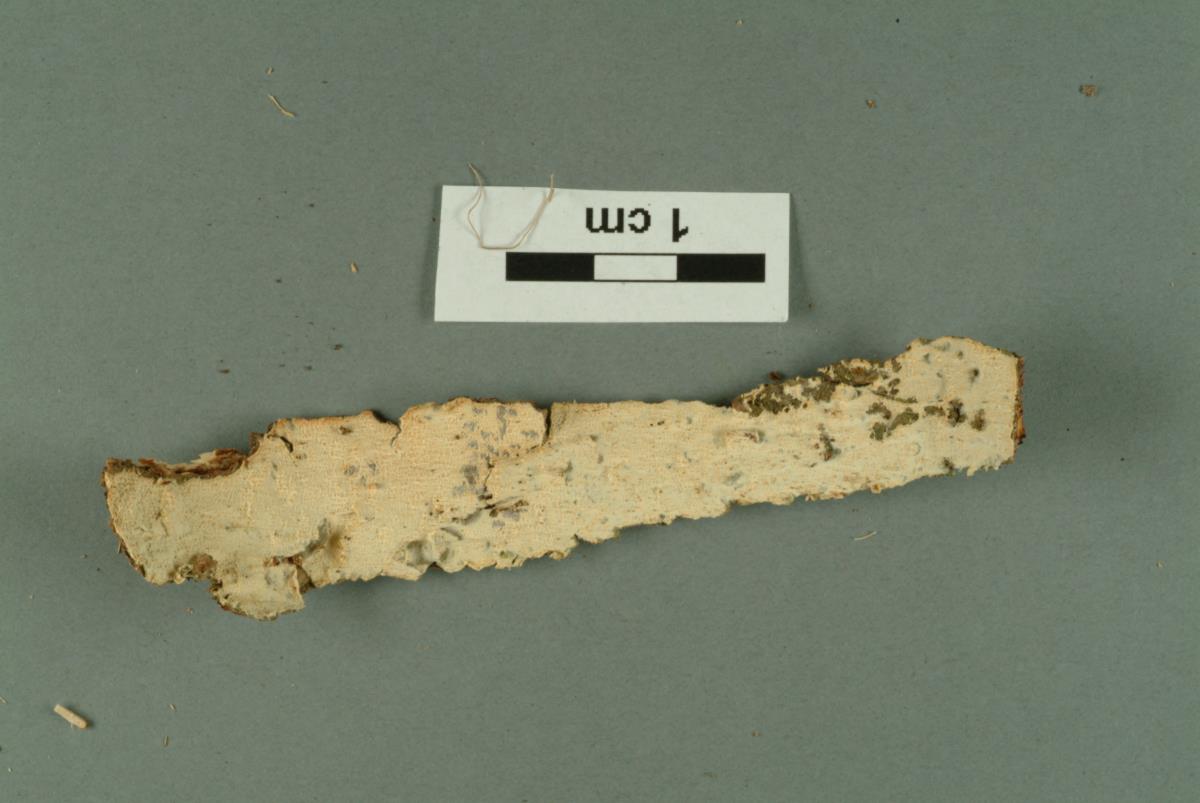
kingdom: Fungi
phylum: Basidiomycota
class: Agaricomycetes
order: Polyporales
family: Meruliaceae
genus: Hypochnicium
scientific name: Hypochnicium lyndoniae
